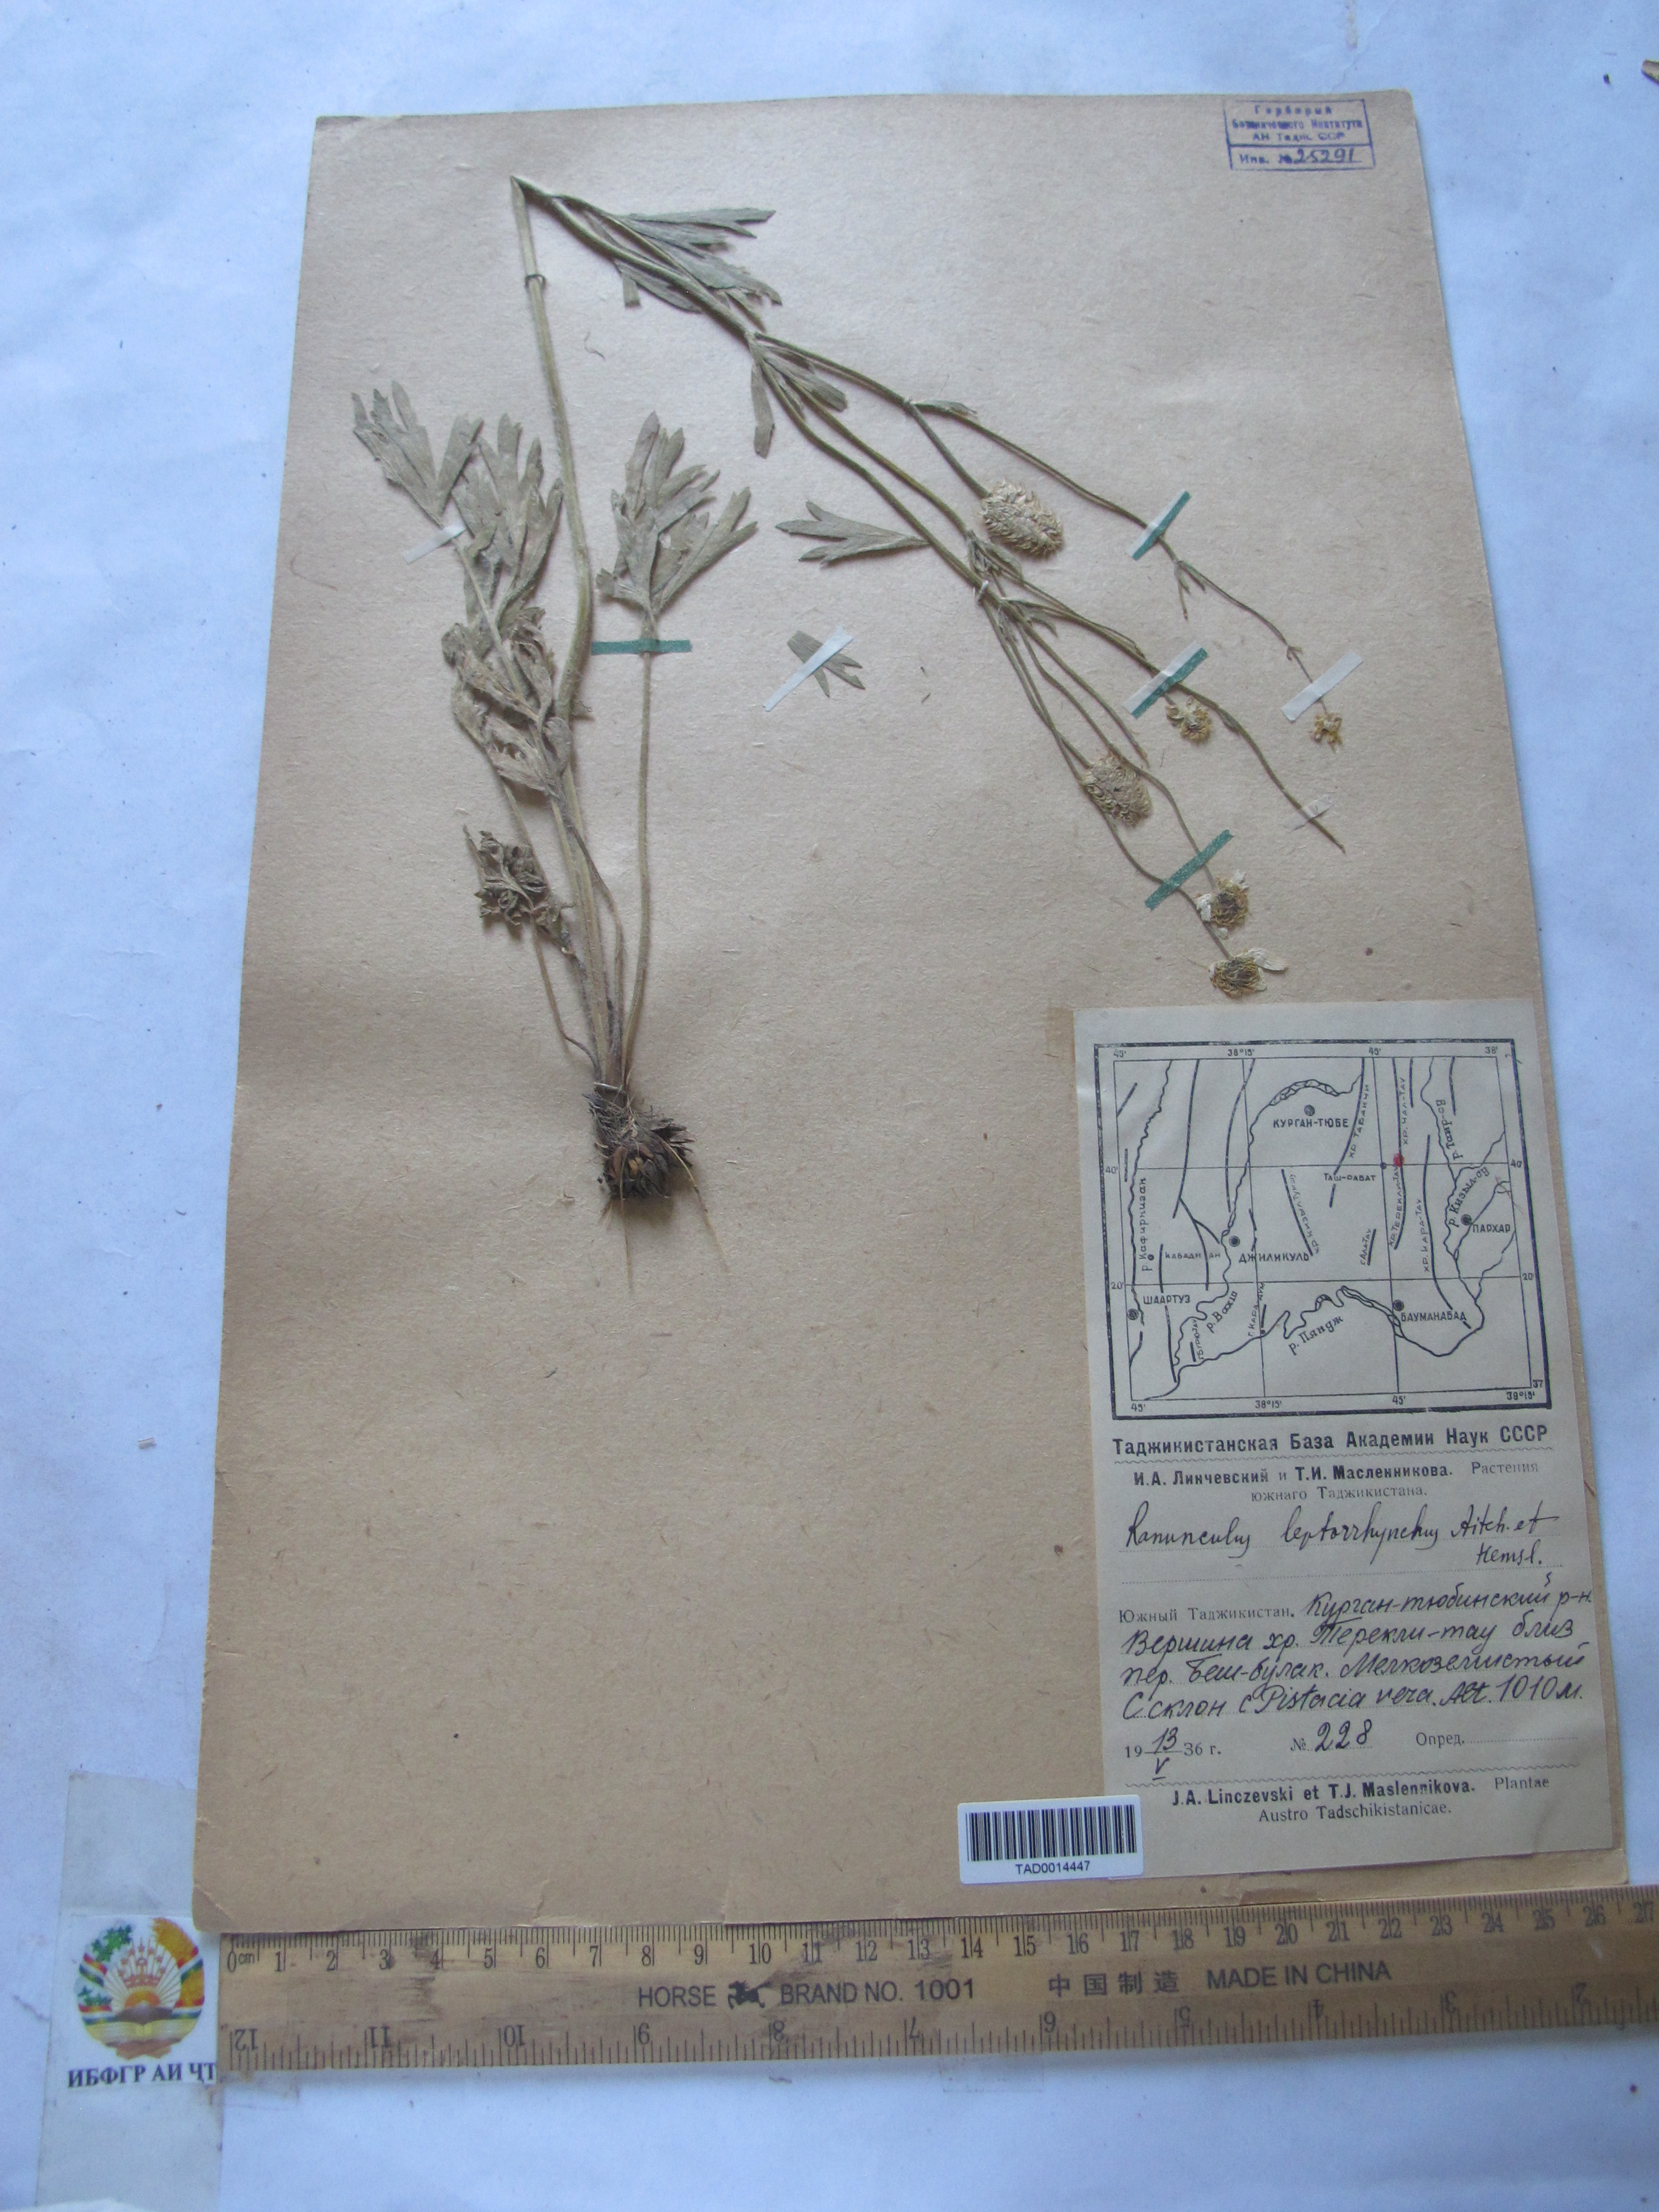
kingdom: Plantae
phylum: Tracheophyta
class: Magnoliopsida
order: Ranunculales
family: Ranunculaceae
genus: Ranunculus
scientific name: Ranunculus leptorrhynchus
